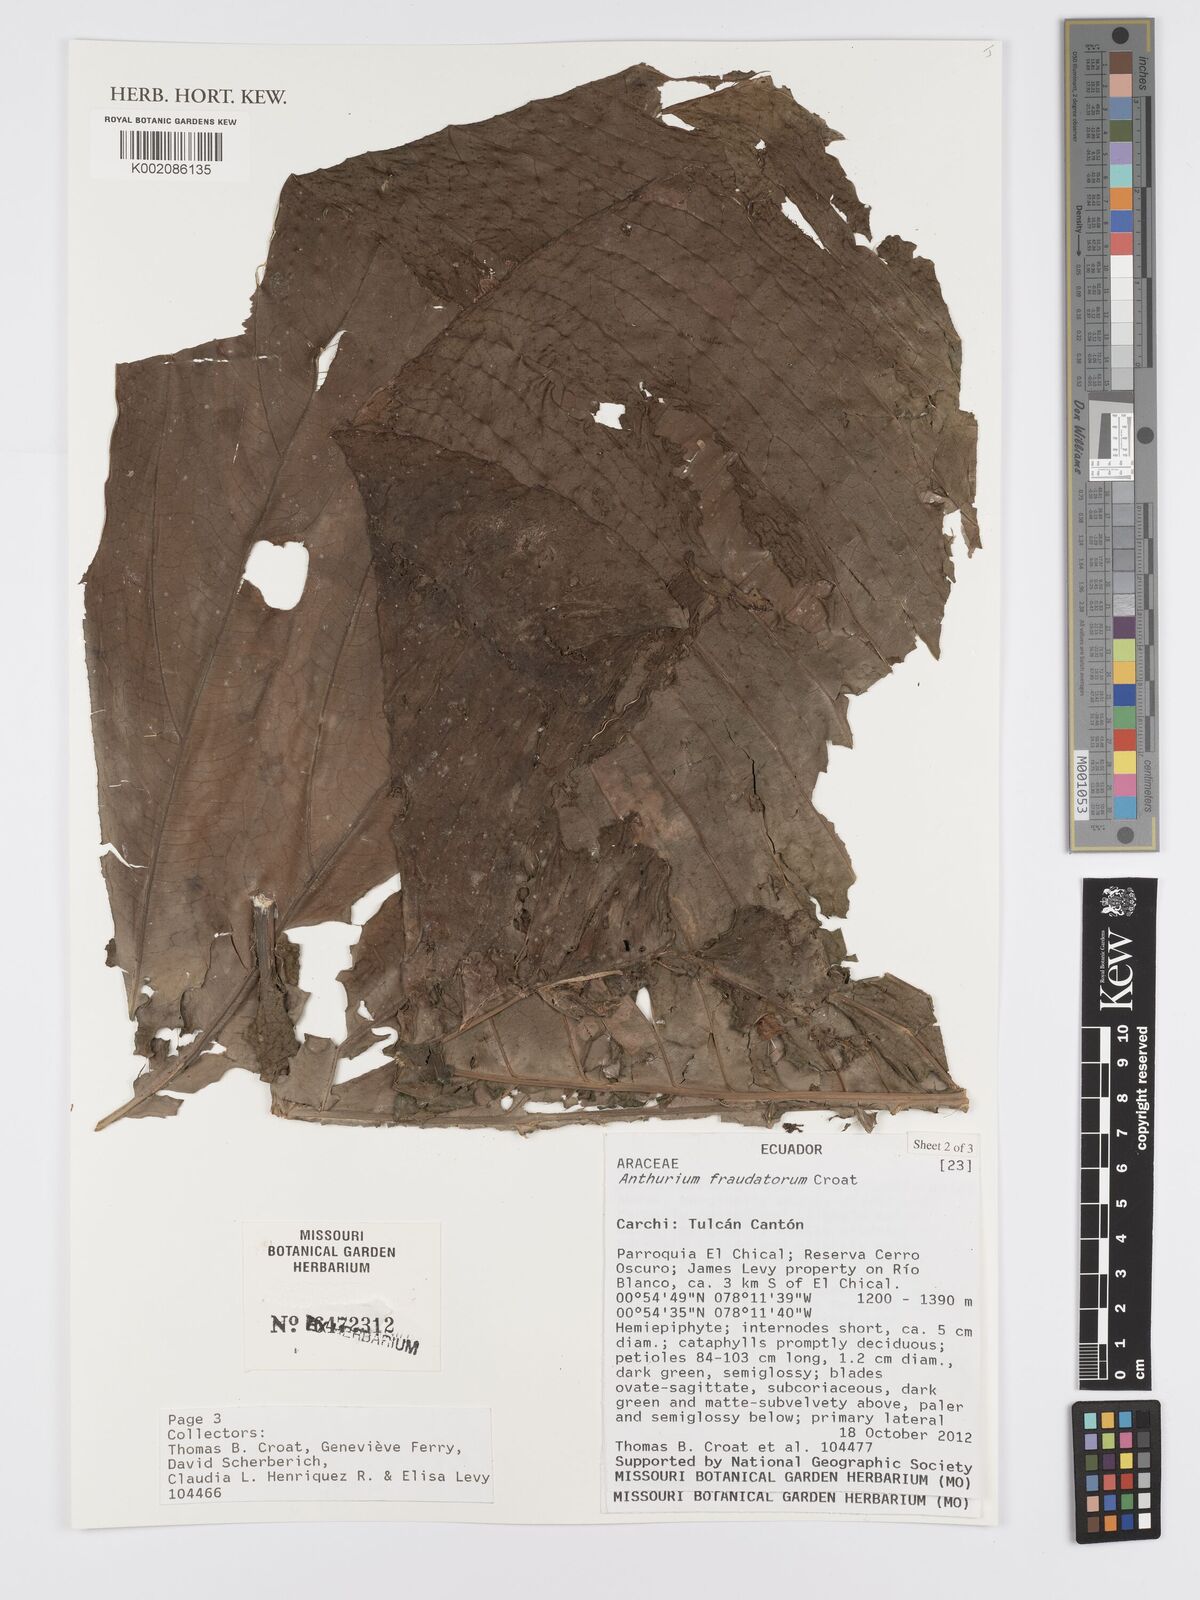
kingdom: Plantae
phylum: Tracheophyta
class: Liliopsida
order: Alismatales
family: Araceae
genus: Anthurium
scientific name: Anthurium
